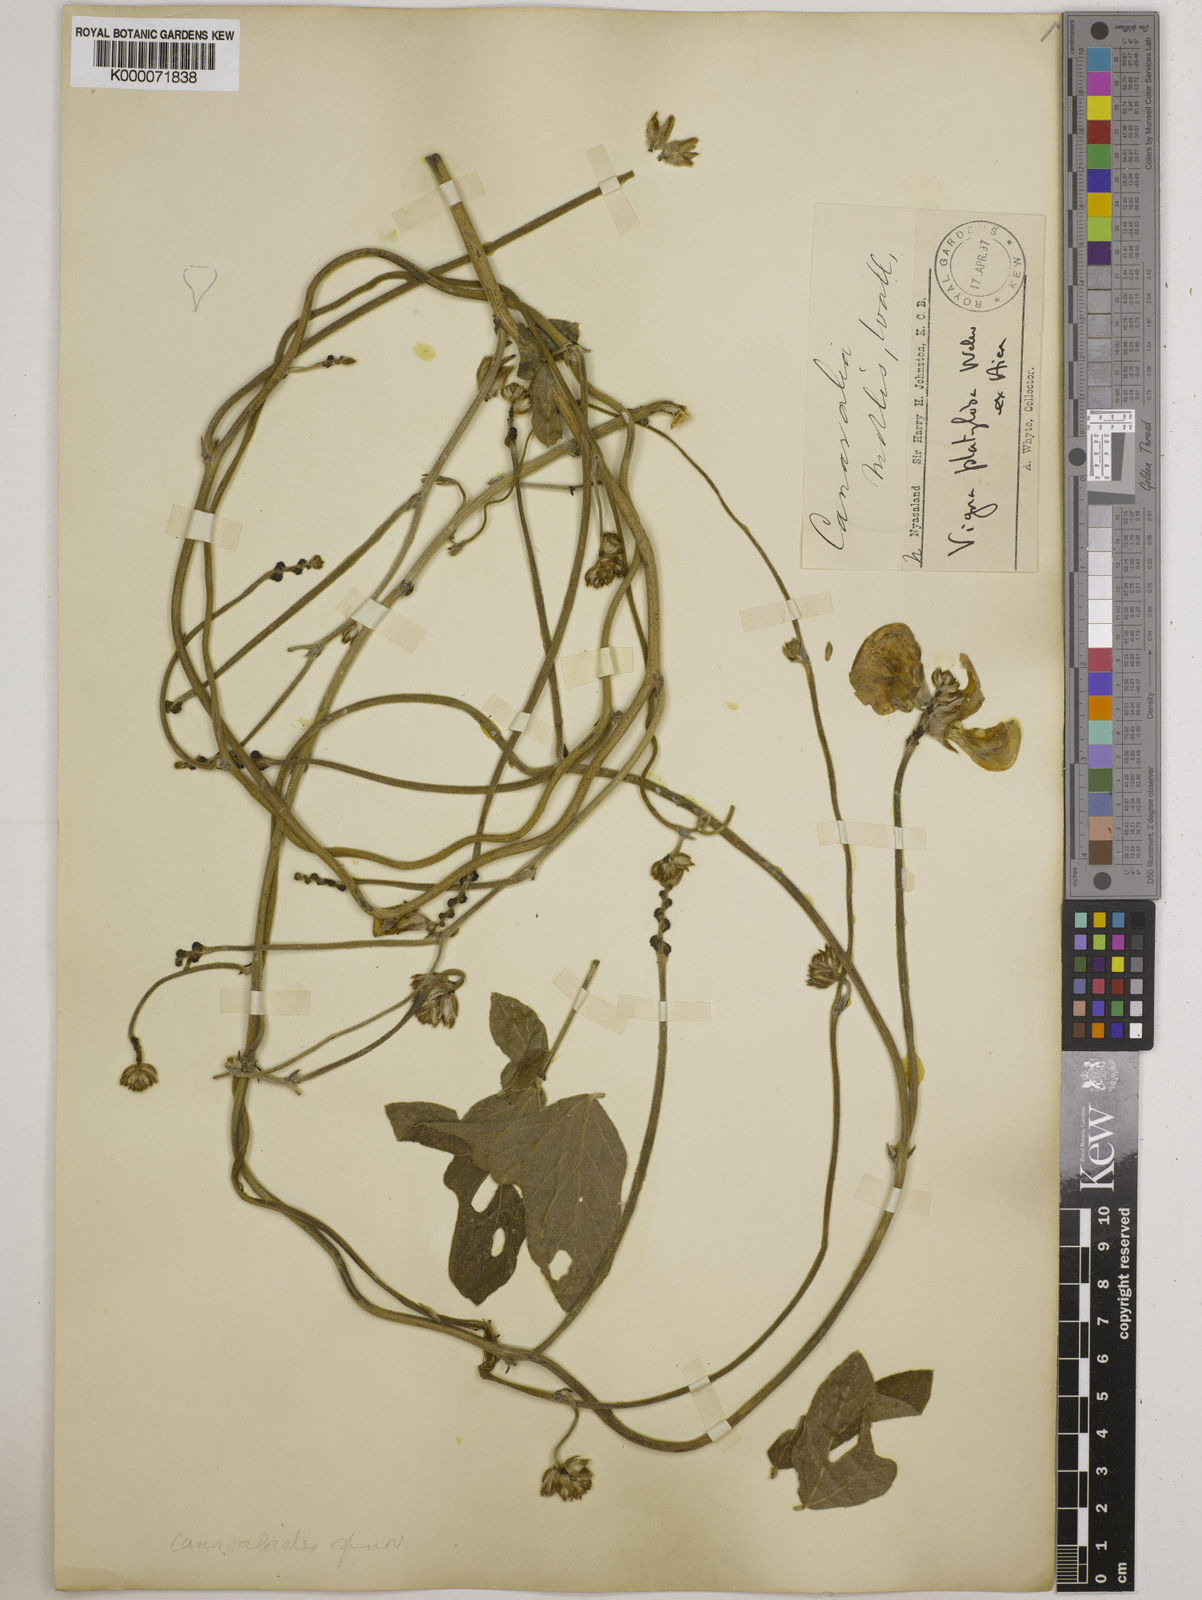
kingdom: Plantae
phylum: Tracheophyta
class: Magnoliopsida
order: Fabales
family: Fabaceae
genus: Vigna
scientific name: Vigna platyloba
